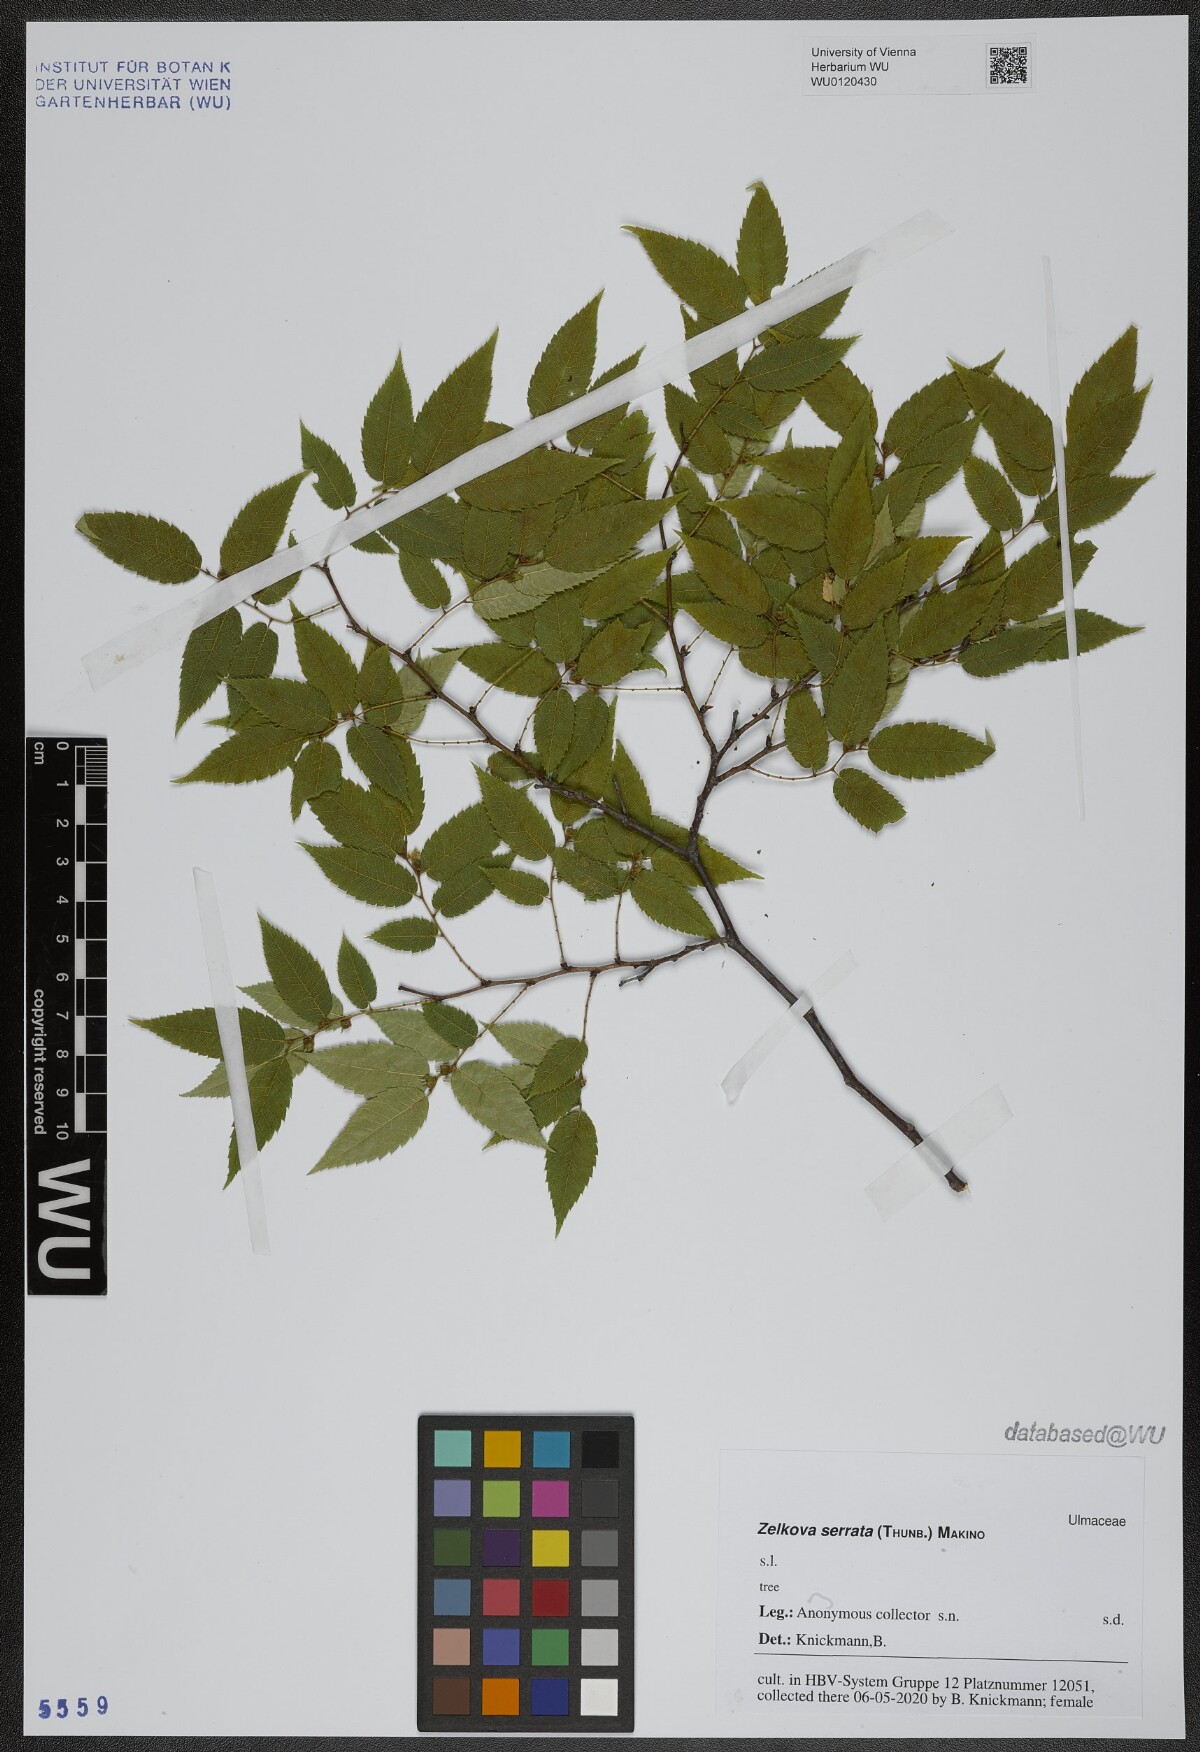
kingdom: Plantae
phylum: Tracheophyta
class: Magnoliopsida
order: Rosales
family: Ulmaceae
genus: Zelkova
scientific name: Zelkova serrata
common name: Japanese zelkova
